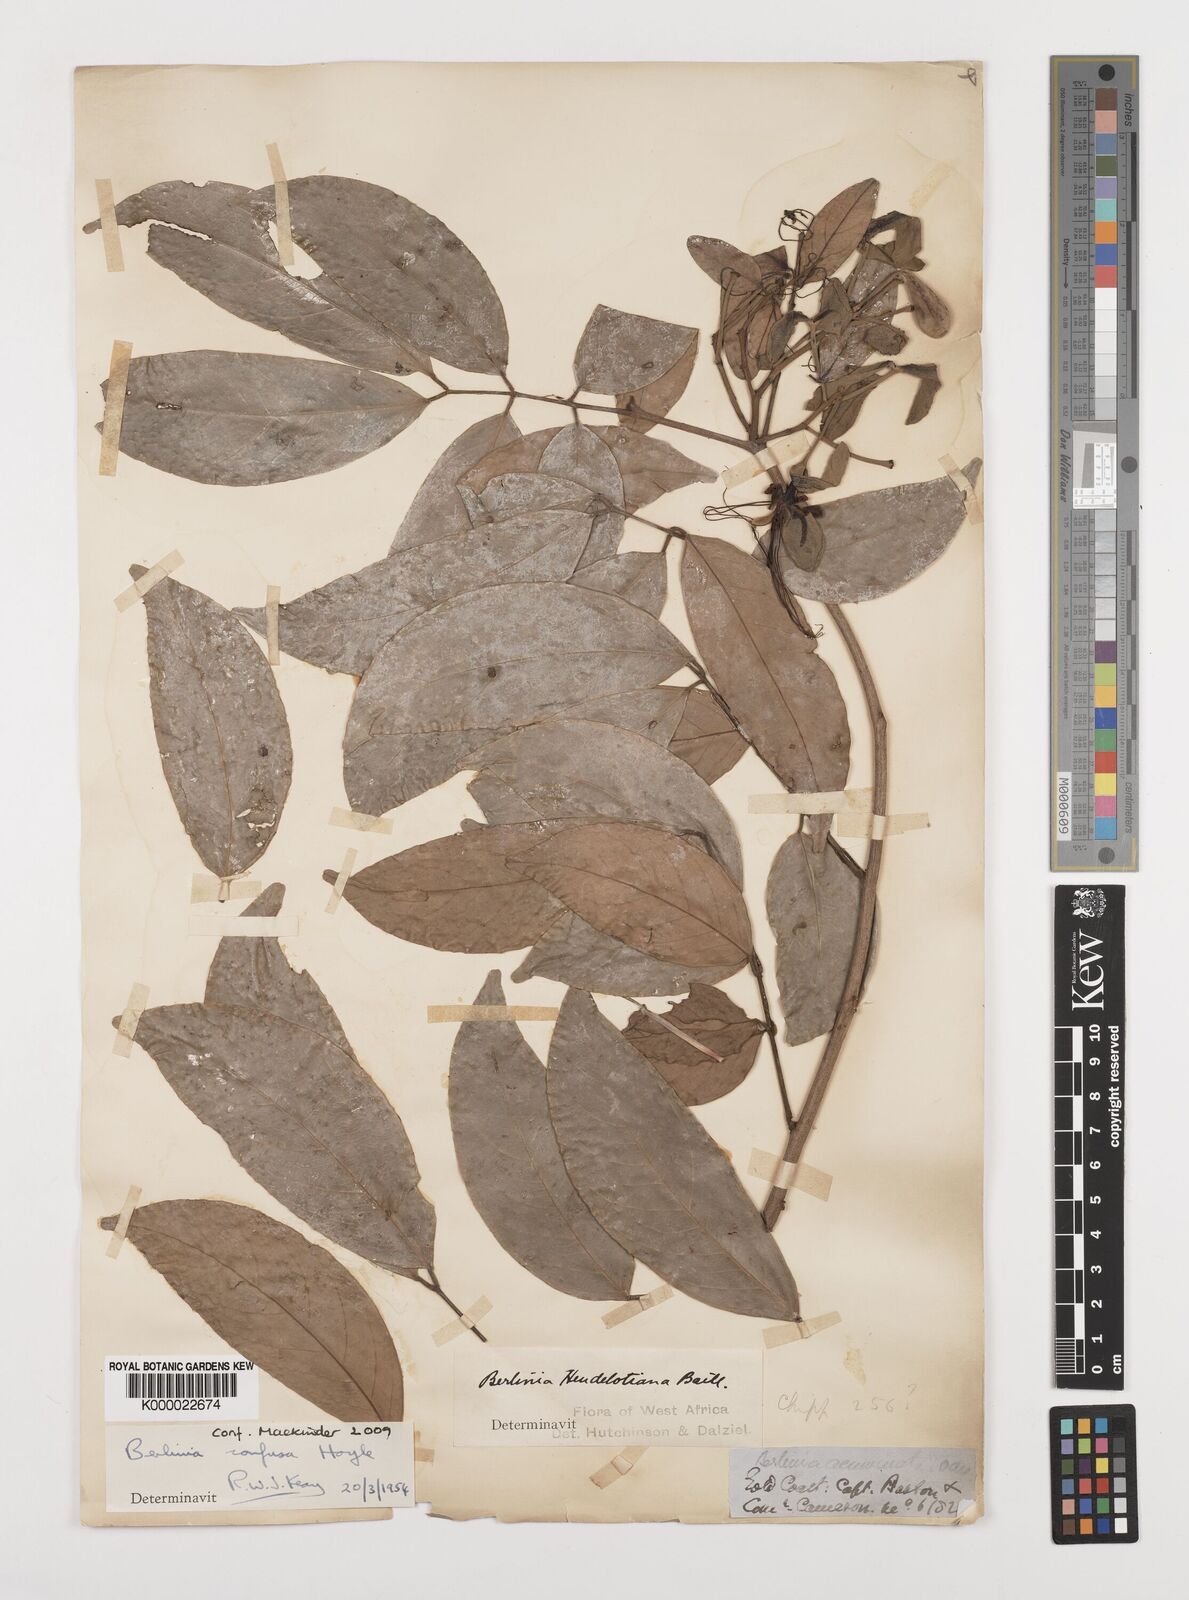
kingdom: Plantae
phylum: Tracheophyta
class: Magnoliopsida
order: Fabales
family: Fabaceae
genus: Berlinia
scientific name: Berlinia confusa
